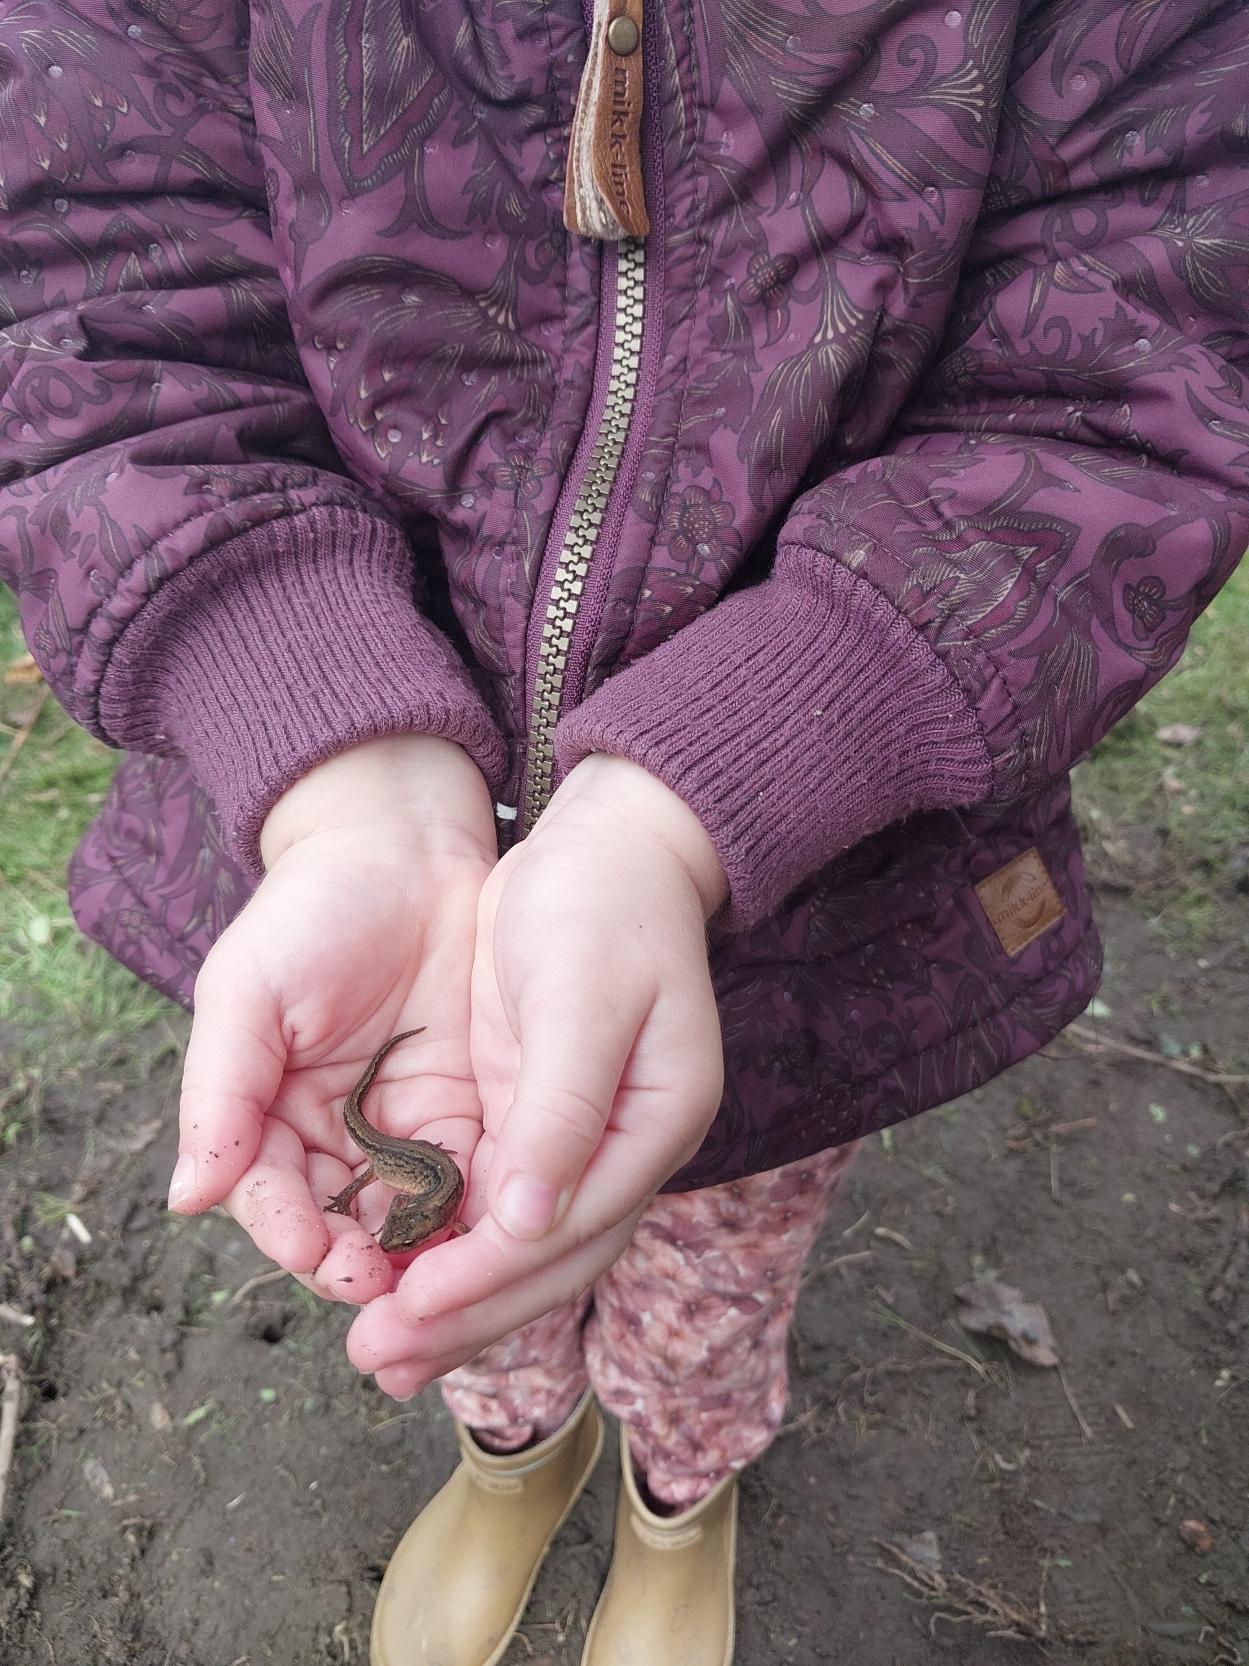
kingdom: Animalia
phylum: Chordata
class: Amphibia
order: Caudata
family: Salamandridae
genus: Lissotriton
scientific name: Lissotriton vulgaris
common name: Lille vandsalamander
